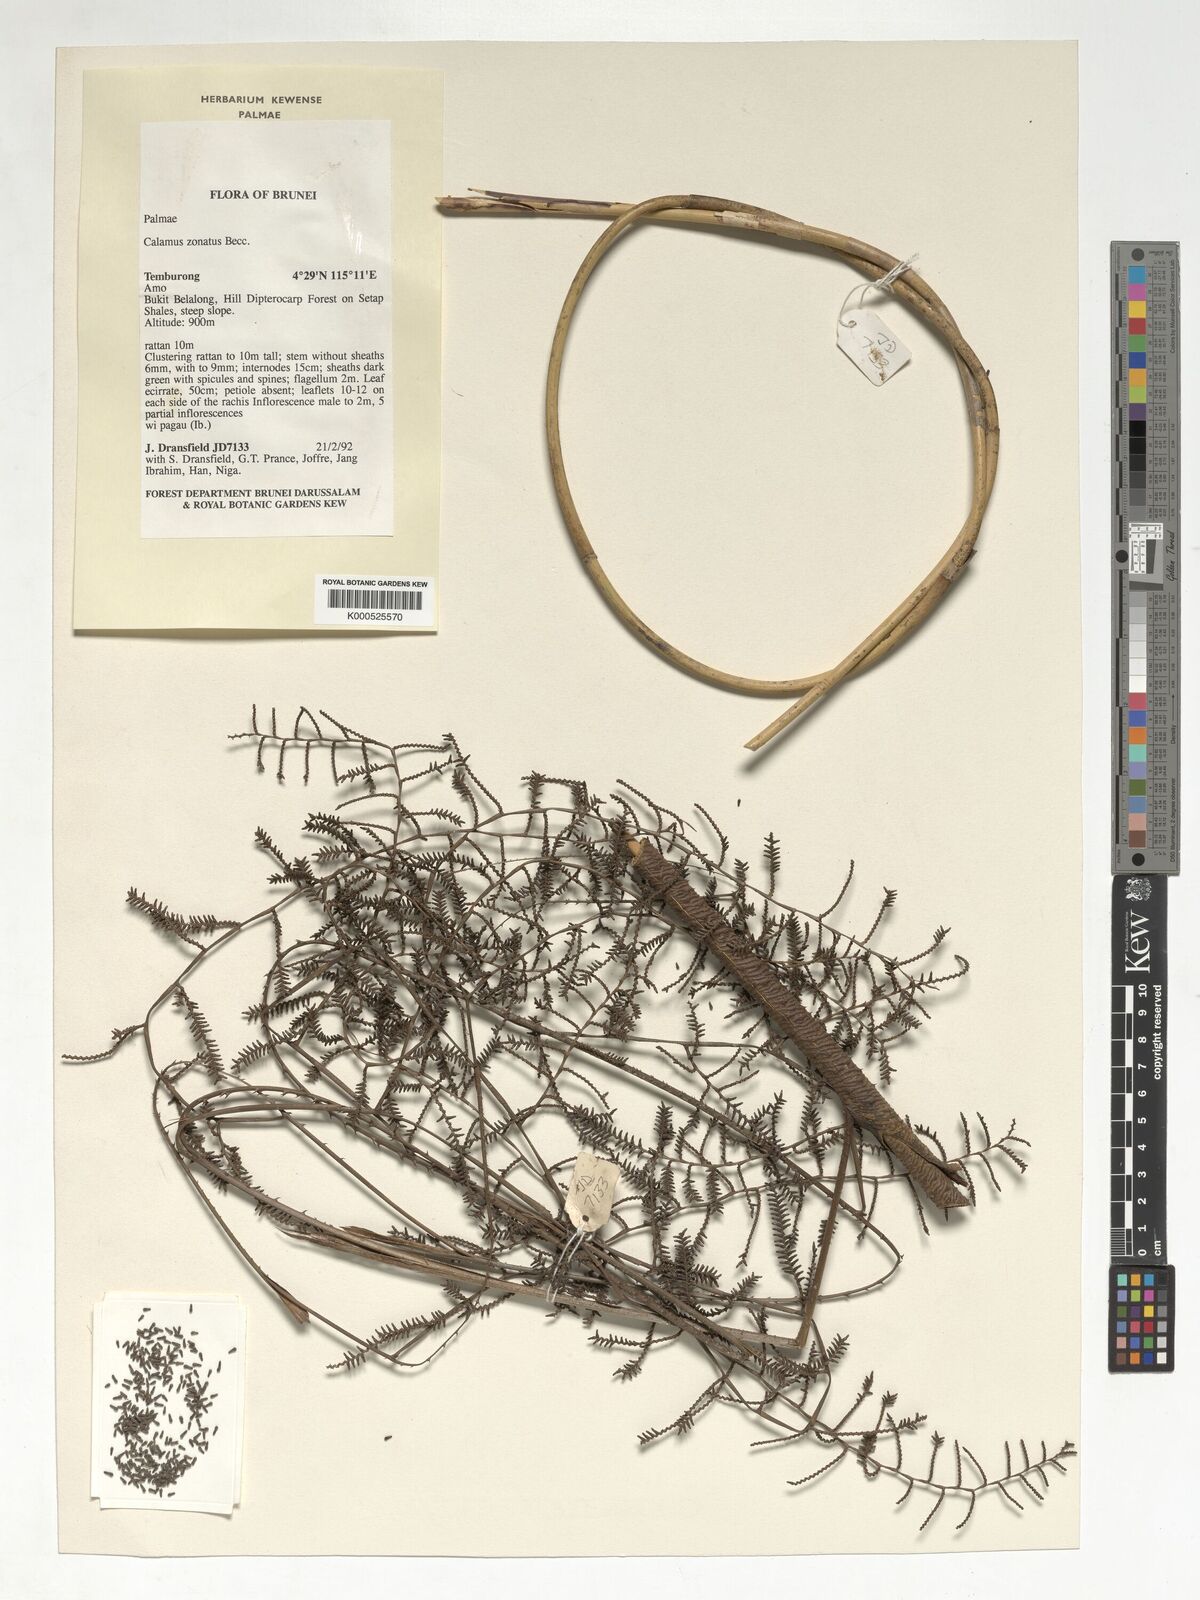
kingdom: Plantae
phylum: Tracheophyta
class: Liliopsida
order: Arecales
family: Arecaceae
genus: Calamus
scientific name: Calamus zonatus
